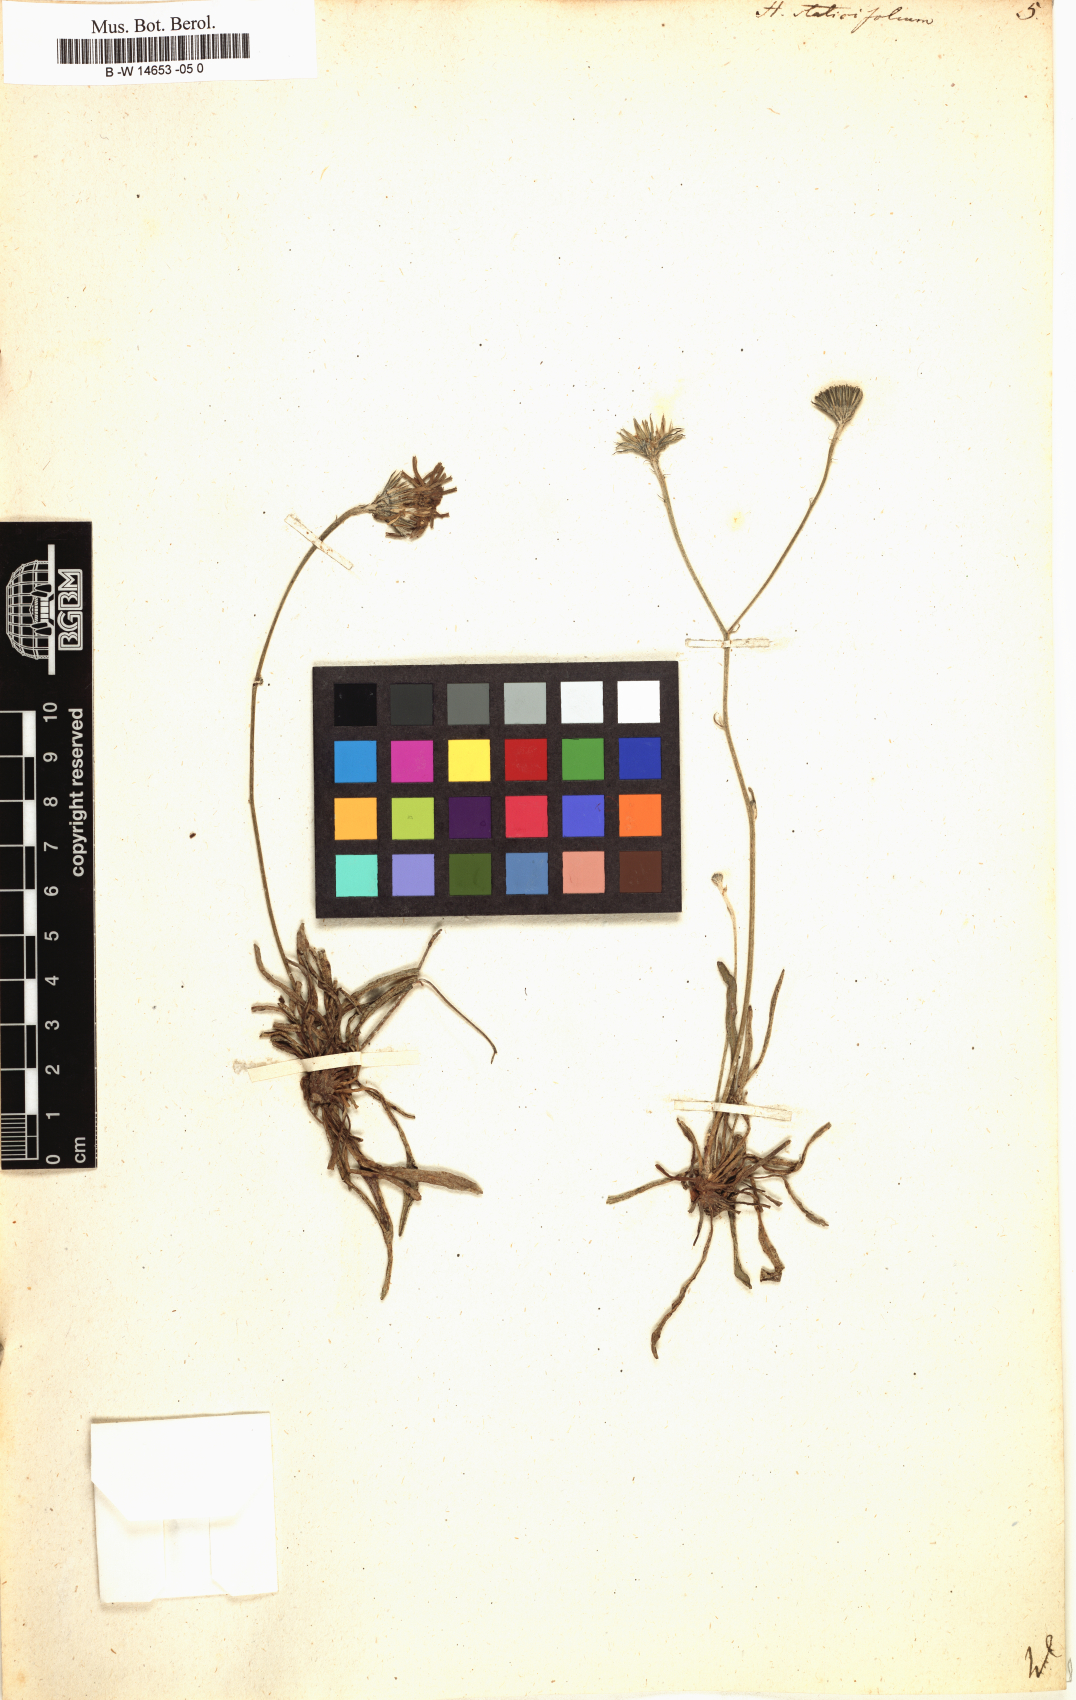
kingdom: Plantae
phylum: Tracheophyta
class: Magnoliopsida
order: Asterales
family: Asteraceae
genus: Hieracium
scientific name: Hieracium staticifolium
